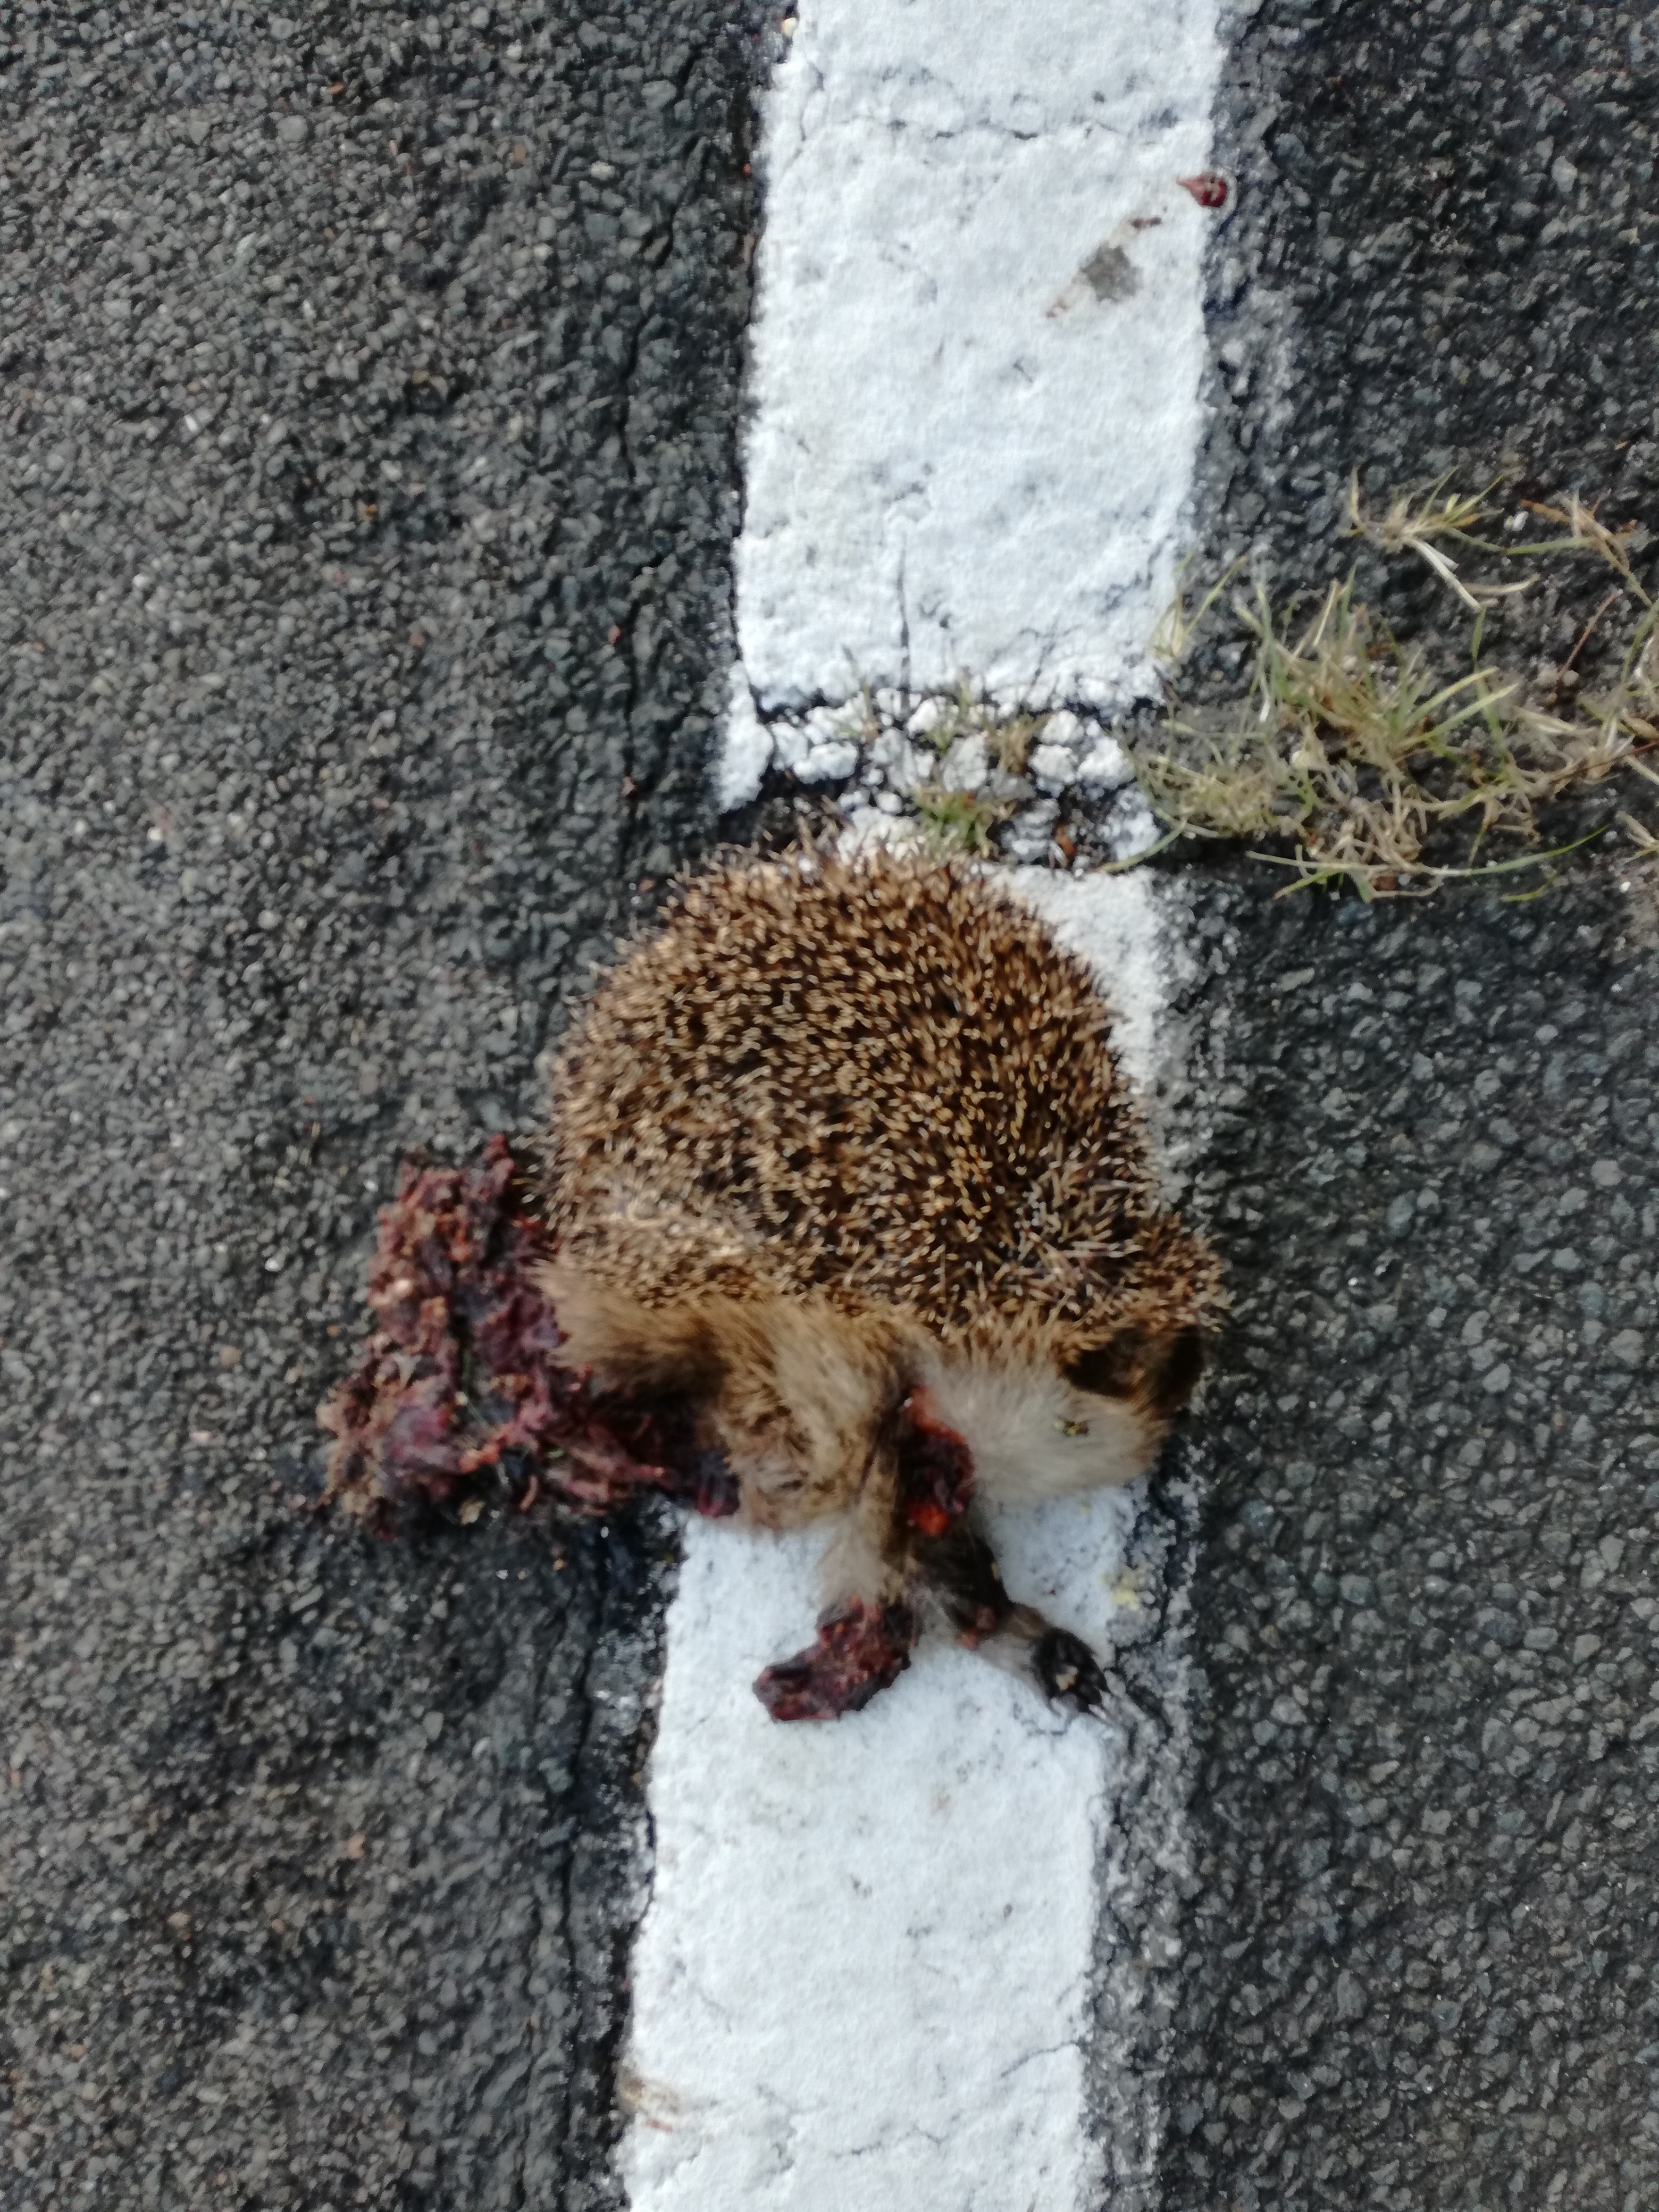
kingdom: Animalia
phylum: Chordata
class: Mammalia
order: Erinaceomorpha
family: Erinaceidae
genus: Erinaceus
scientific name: Erinaceus
